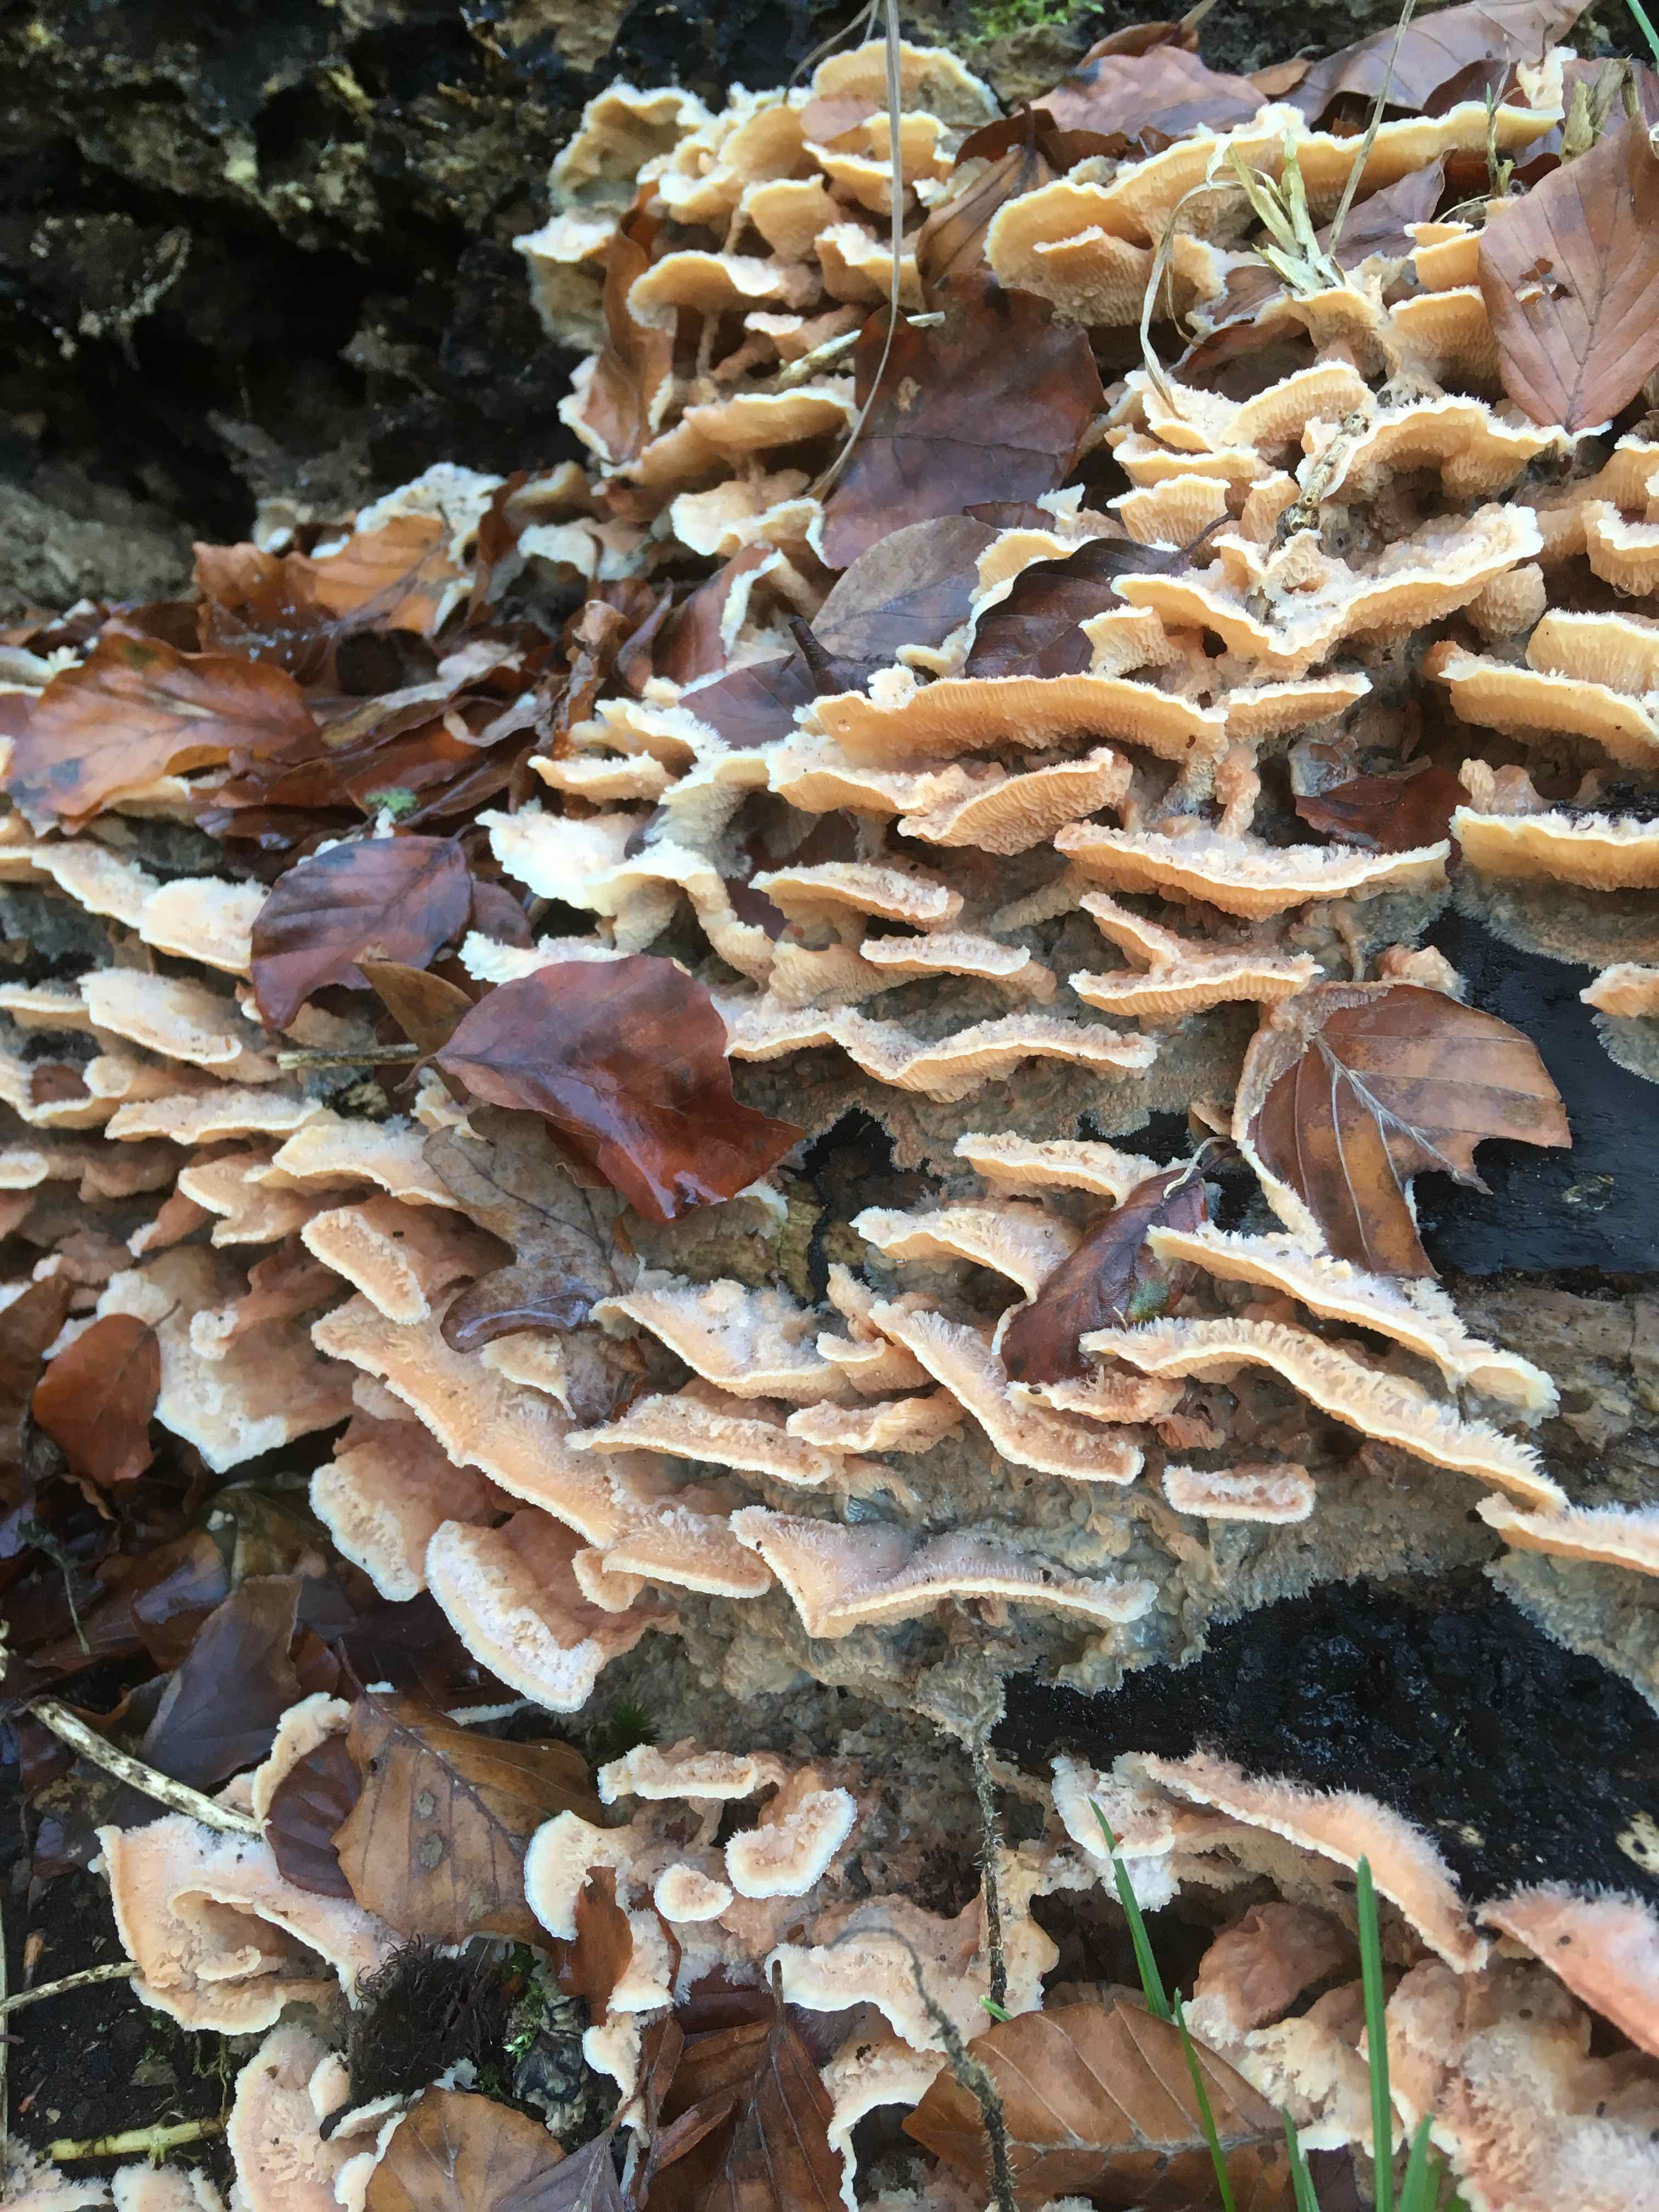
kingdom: Fungi
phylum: Basidiomycota
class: Agaricomycetes
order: Polyporales
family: Meruliaceae
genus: Phlebia
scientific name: Phlebia tremellosa
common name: bævrende åresvamp
